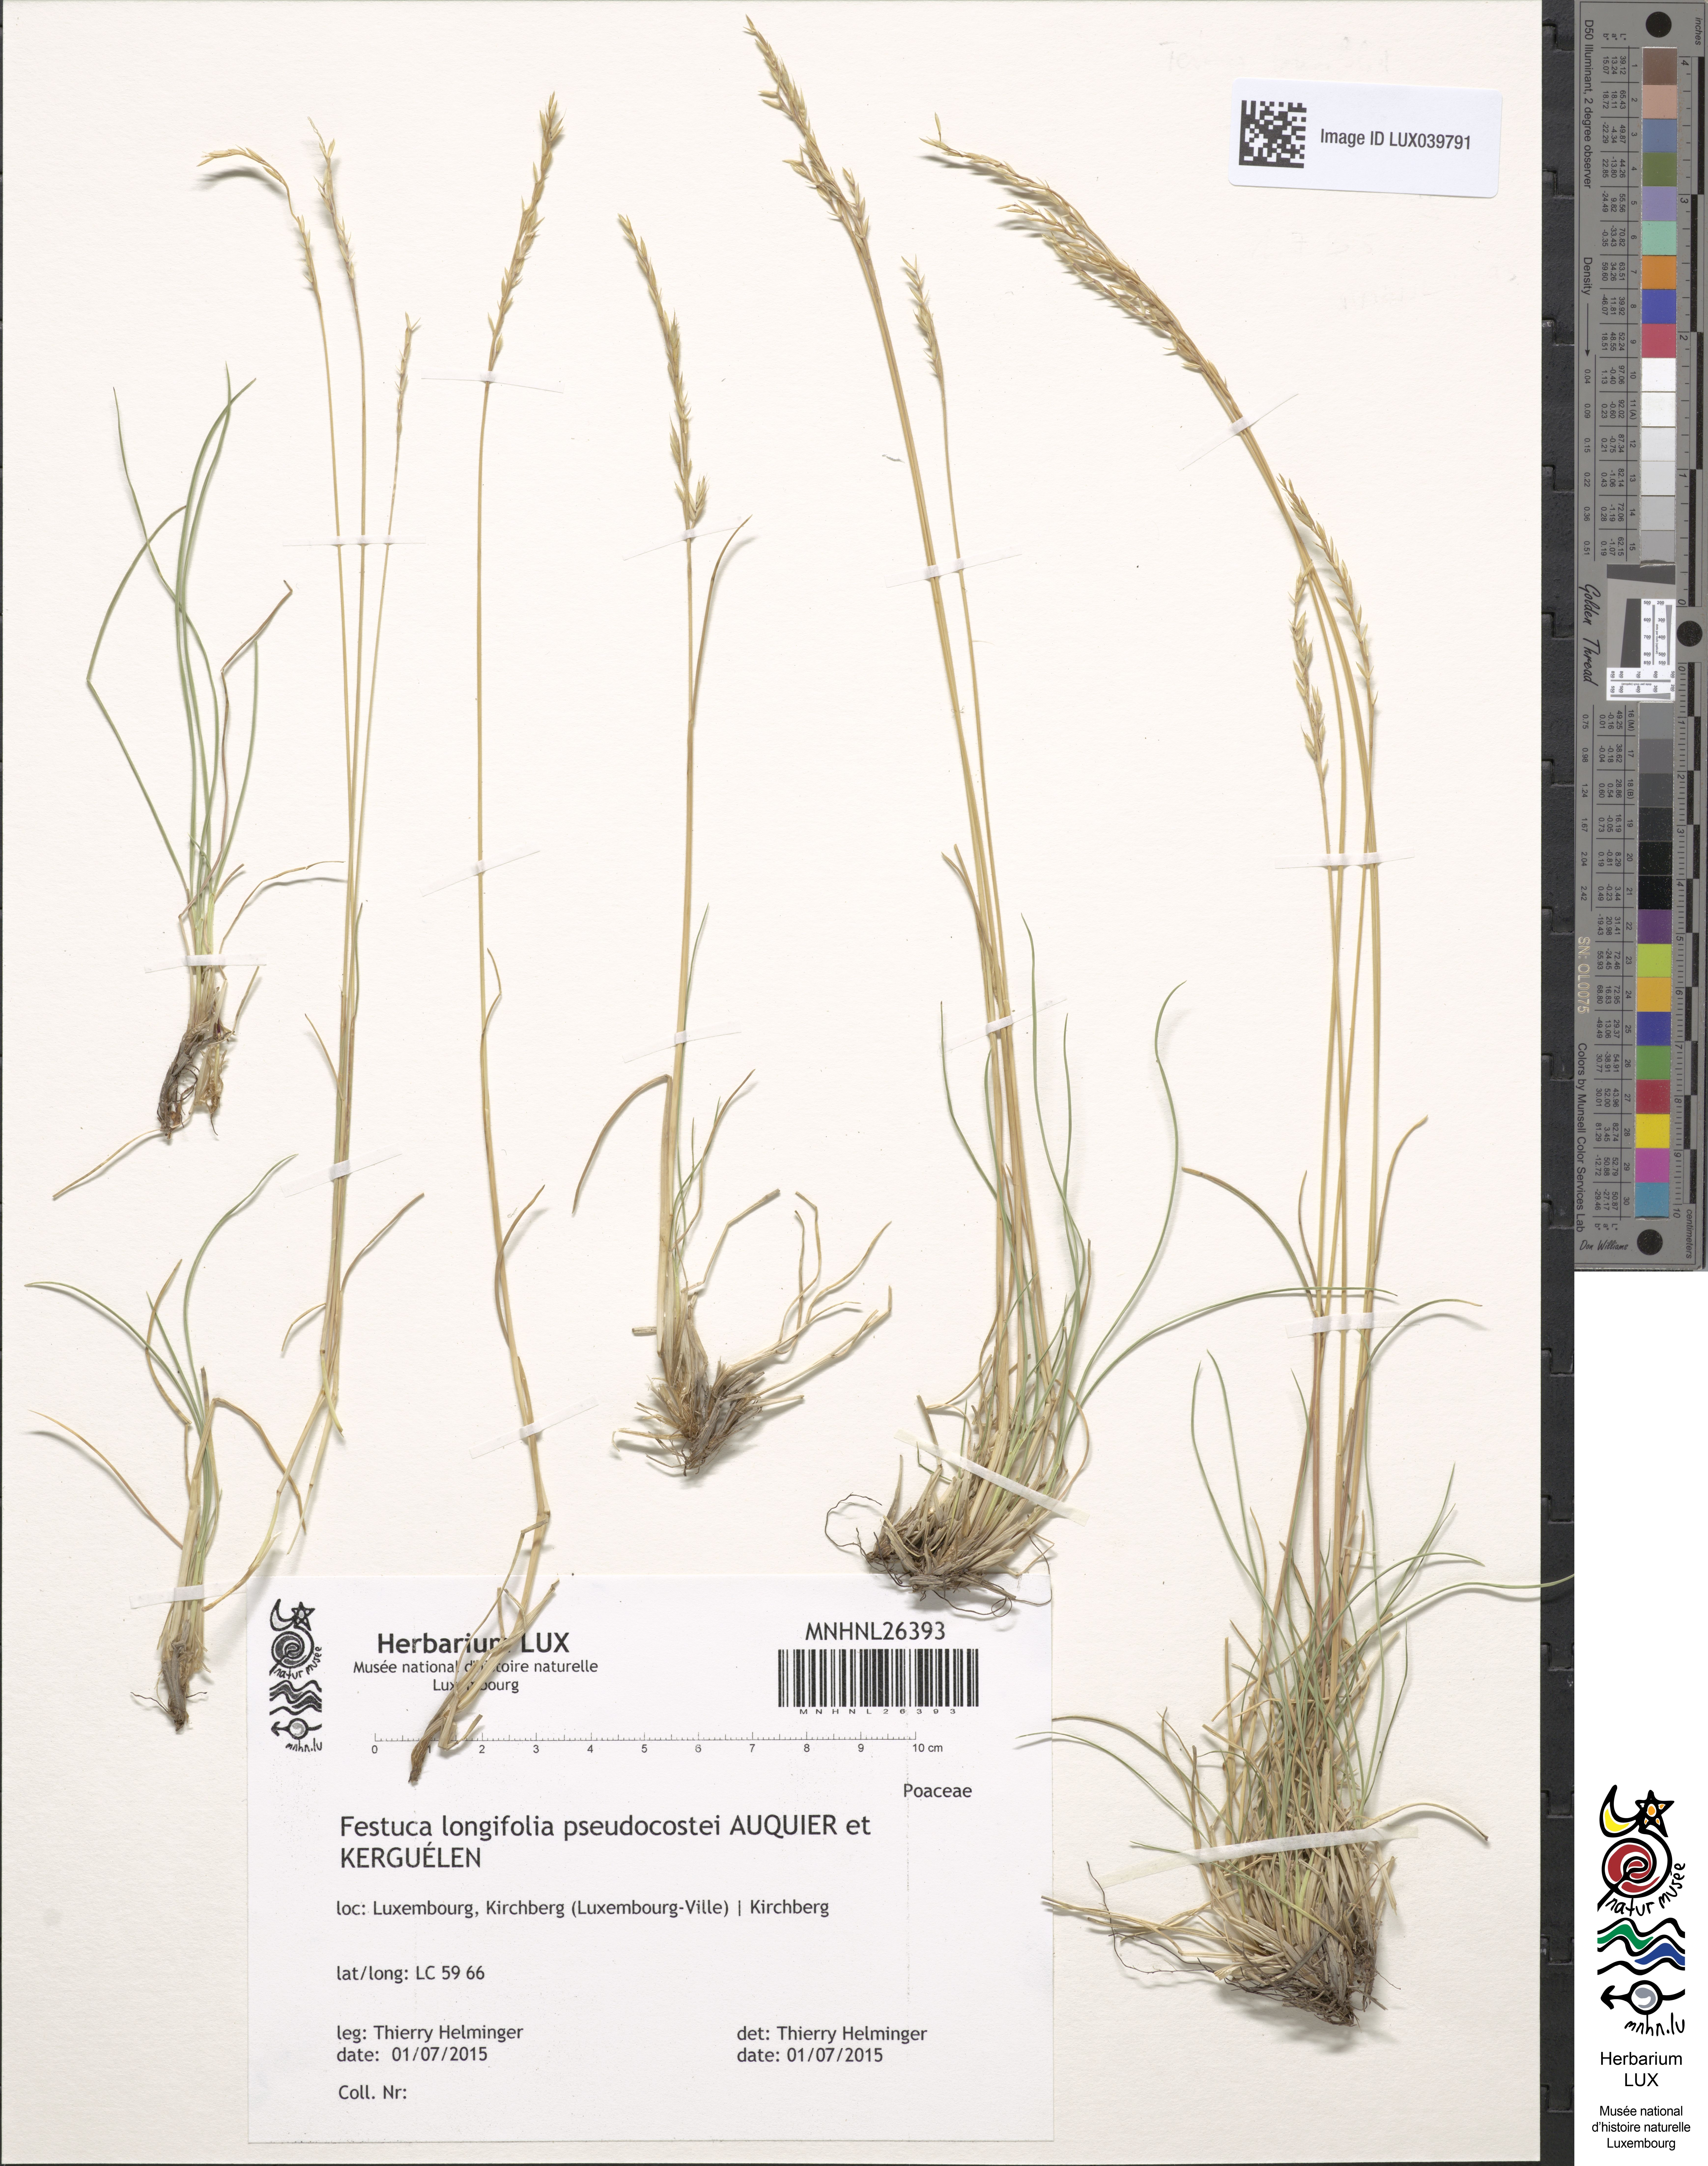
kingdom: Plantae
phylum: Tracheophyta
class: Liliopsida
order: Poales
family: Poaceae
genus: Festuca
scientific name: Festuca longifolia
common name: Blue fescue
